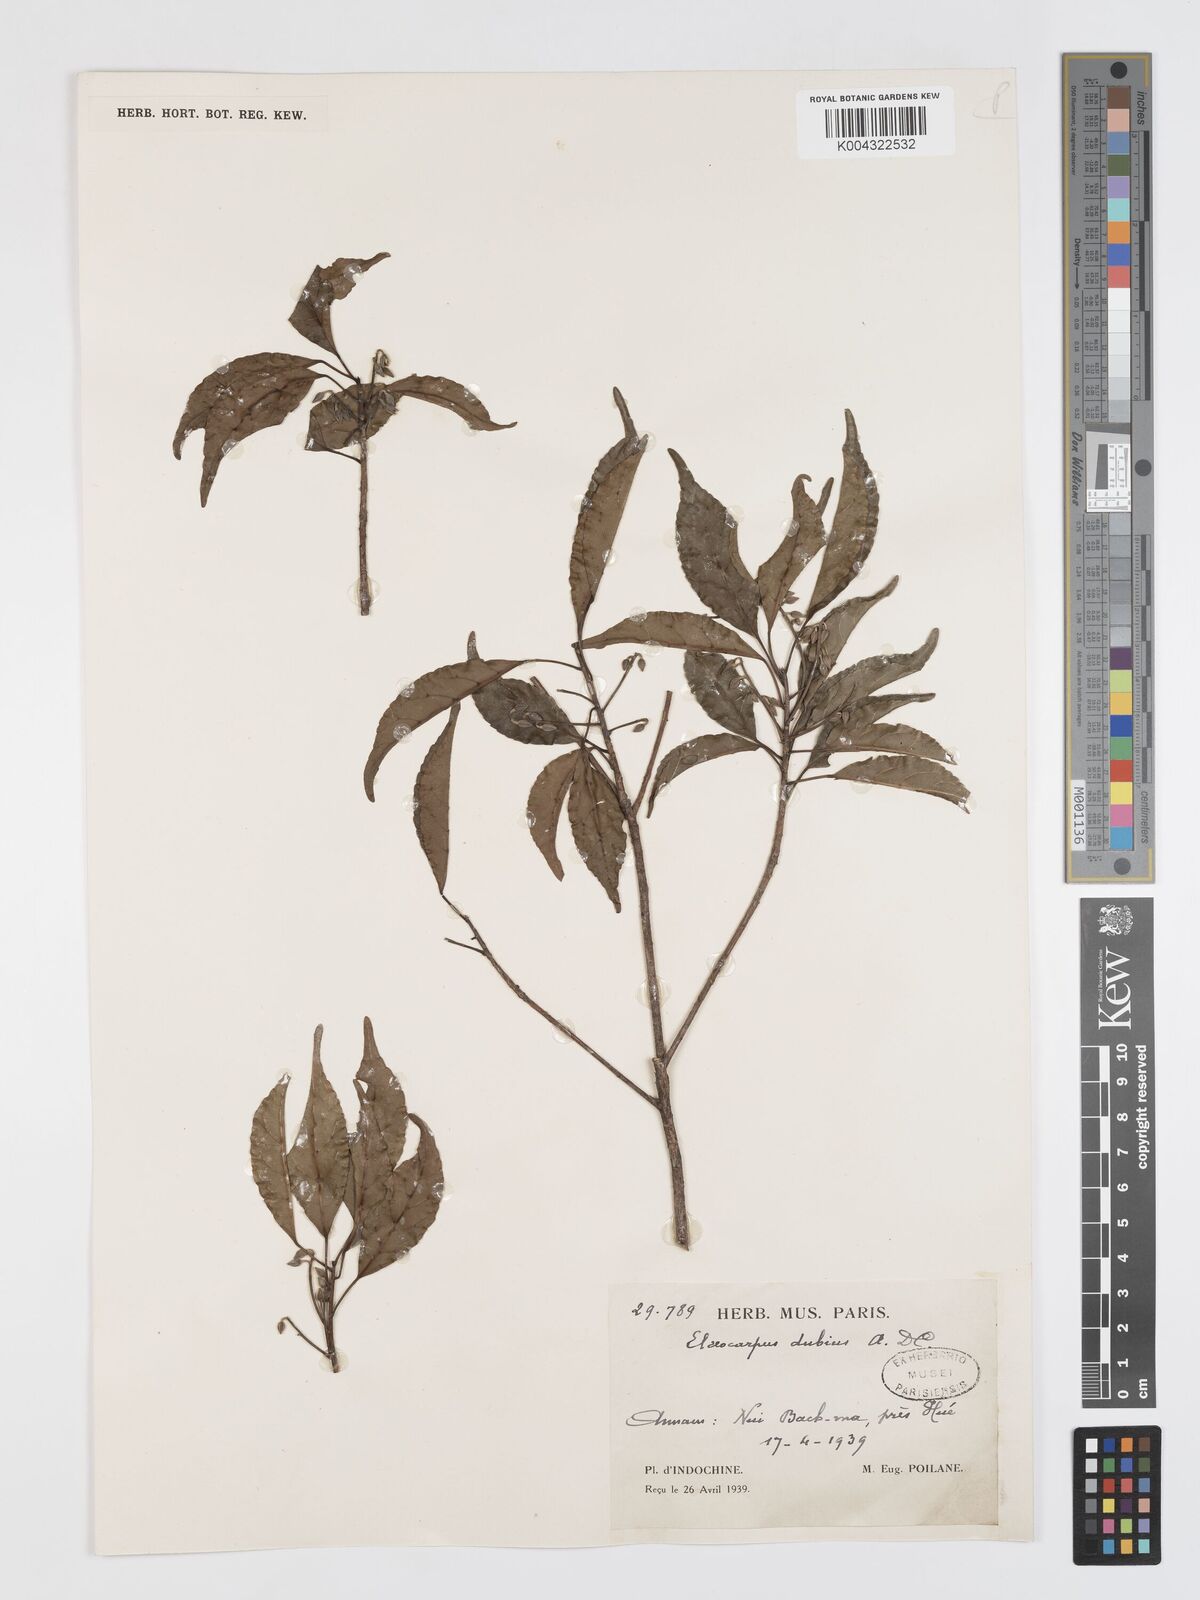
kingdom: Plantae
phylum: Tracheophyta
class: Magnoliopsida
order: Oxalidales
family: Elaeocarpaceae
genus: Elaeocarpus
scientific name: Elaeocarpus dubius
